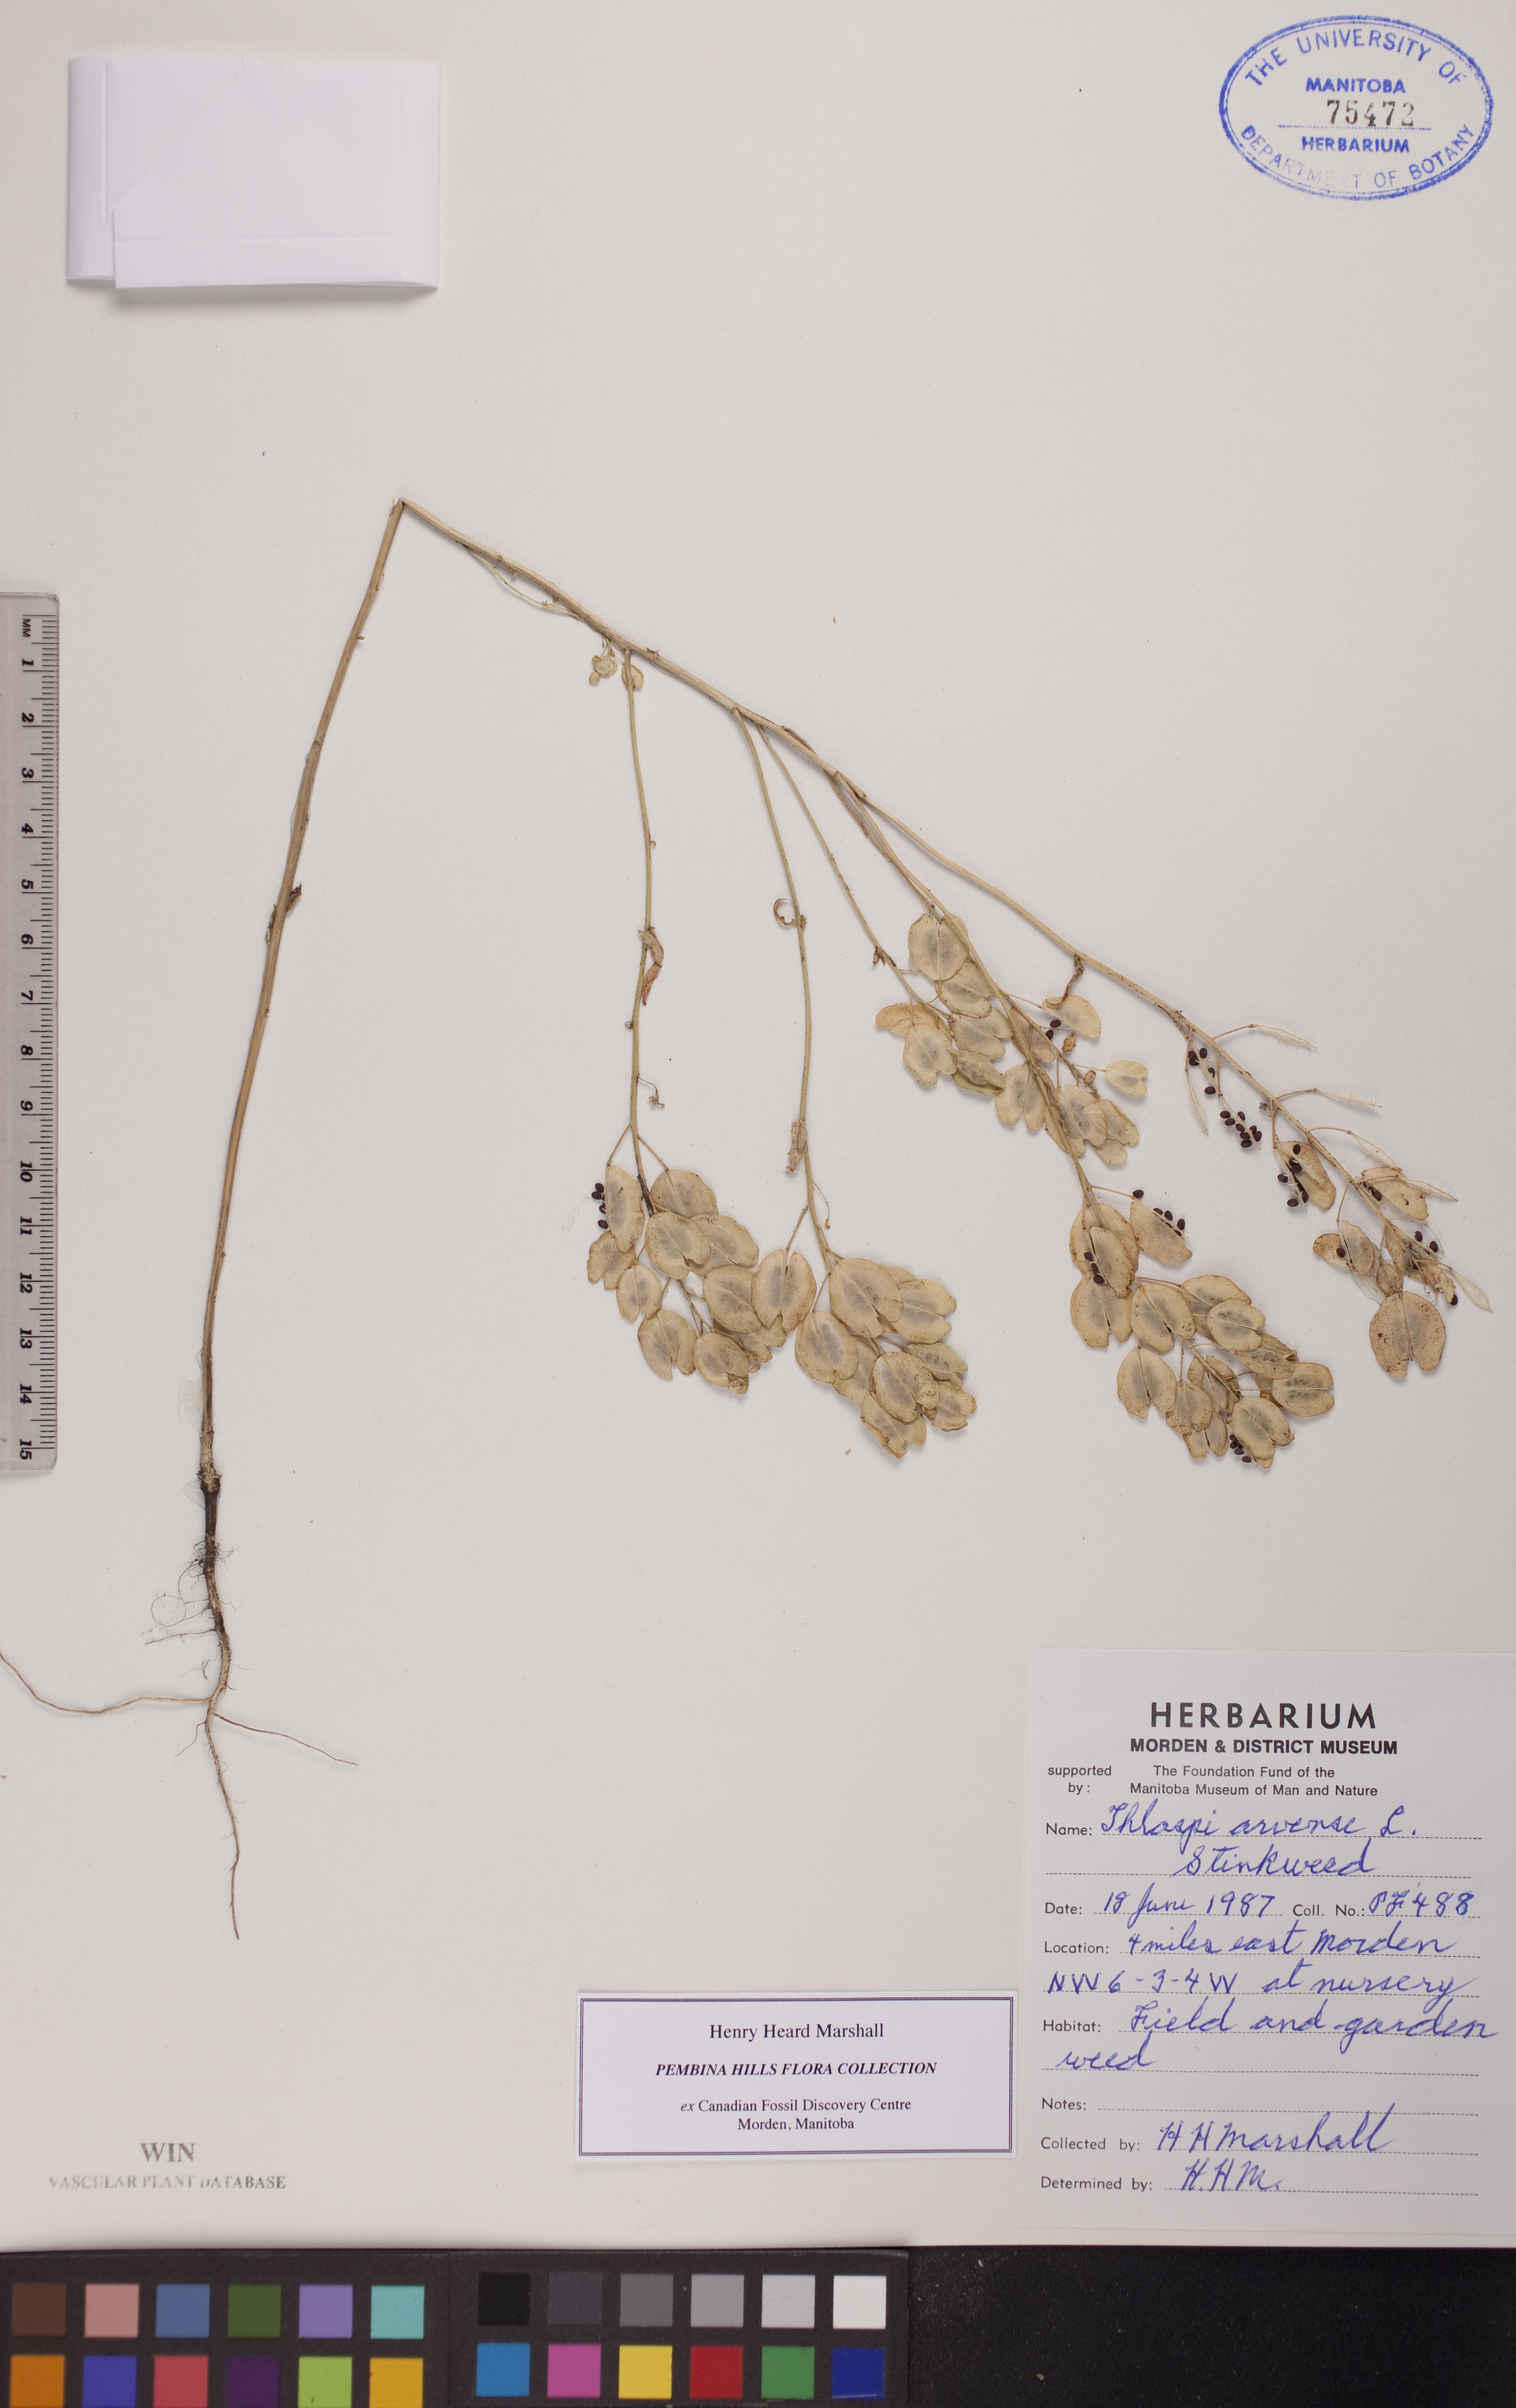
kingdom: Plantae
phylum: Tracheophyta
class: Magnoliopsida
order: Brassicales
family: Brassicaceae
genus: Thlaspi
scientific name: Thlaspi arvense
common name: Field pennycress
